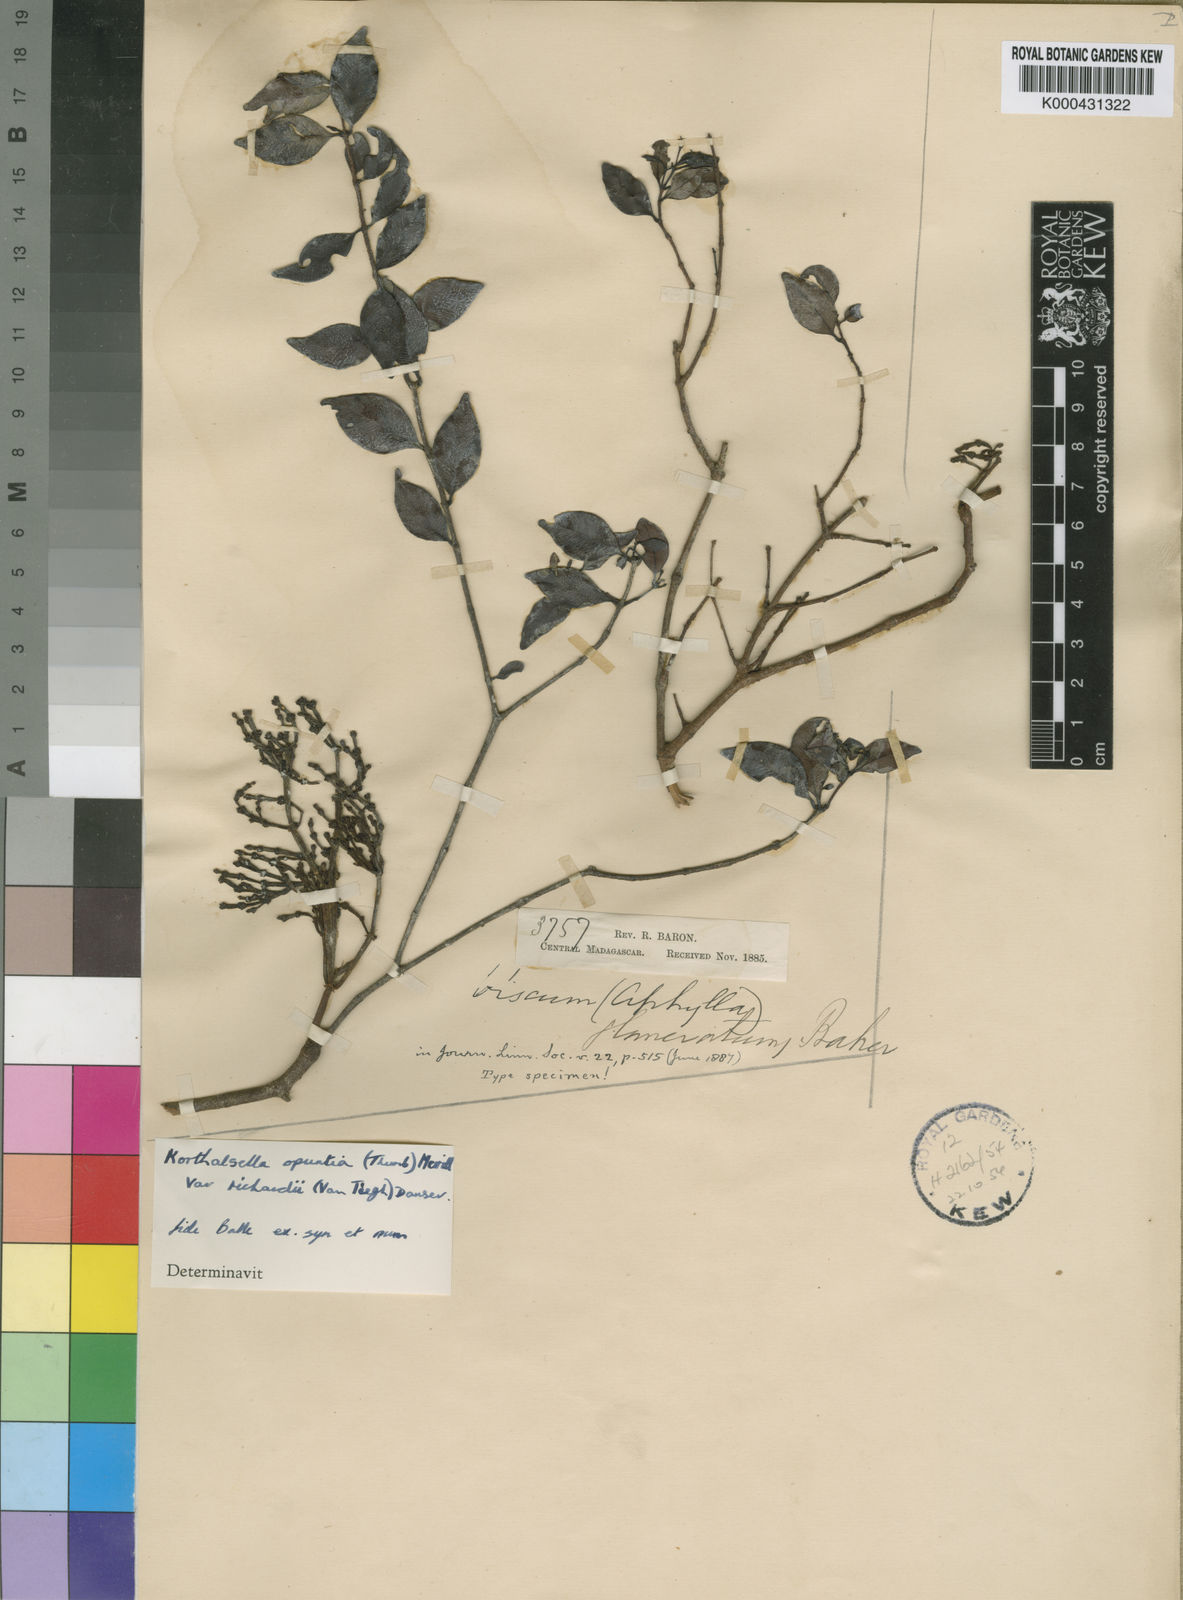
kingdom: Plantae
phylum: Tracheophyta
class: Magnoliopsida
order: Santalales
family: Viscaceae
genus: Korthalsella
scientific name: Korthalsella
